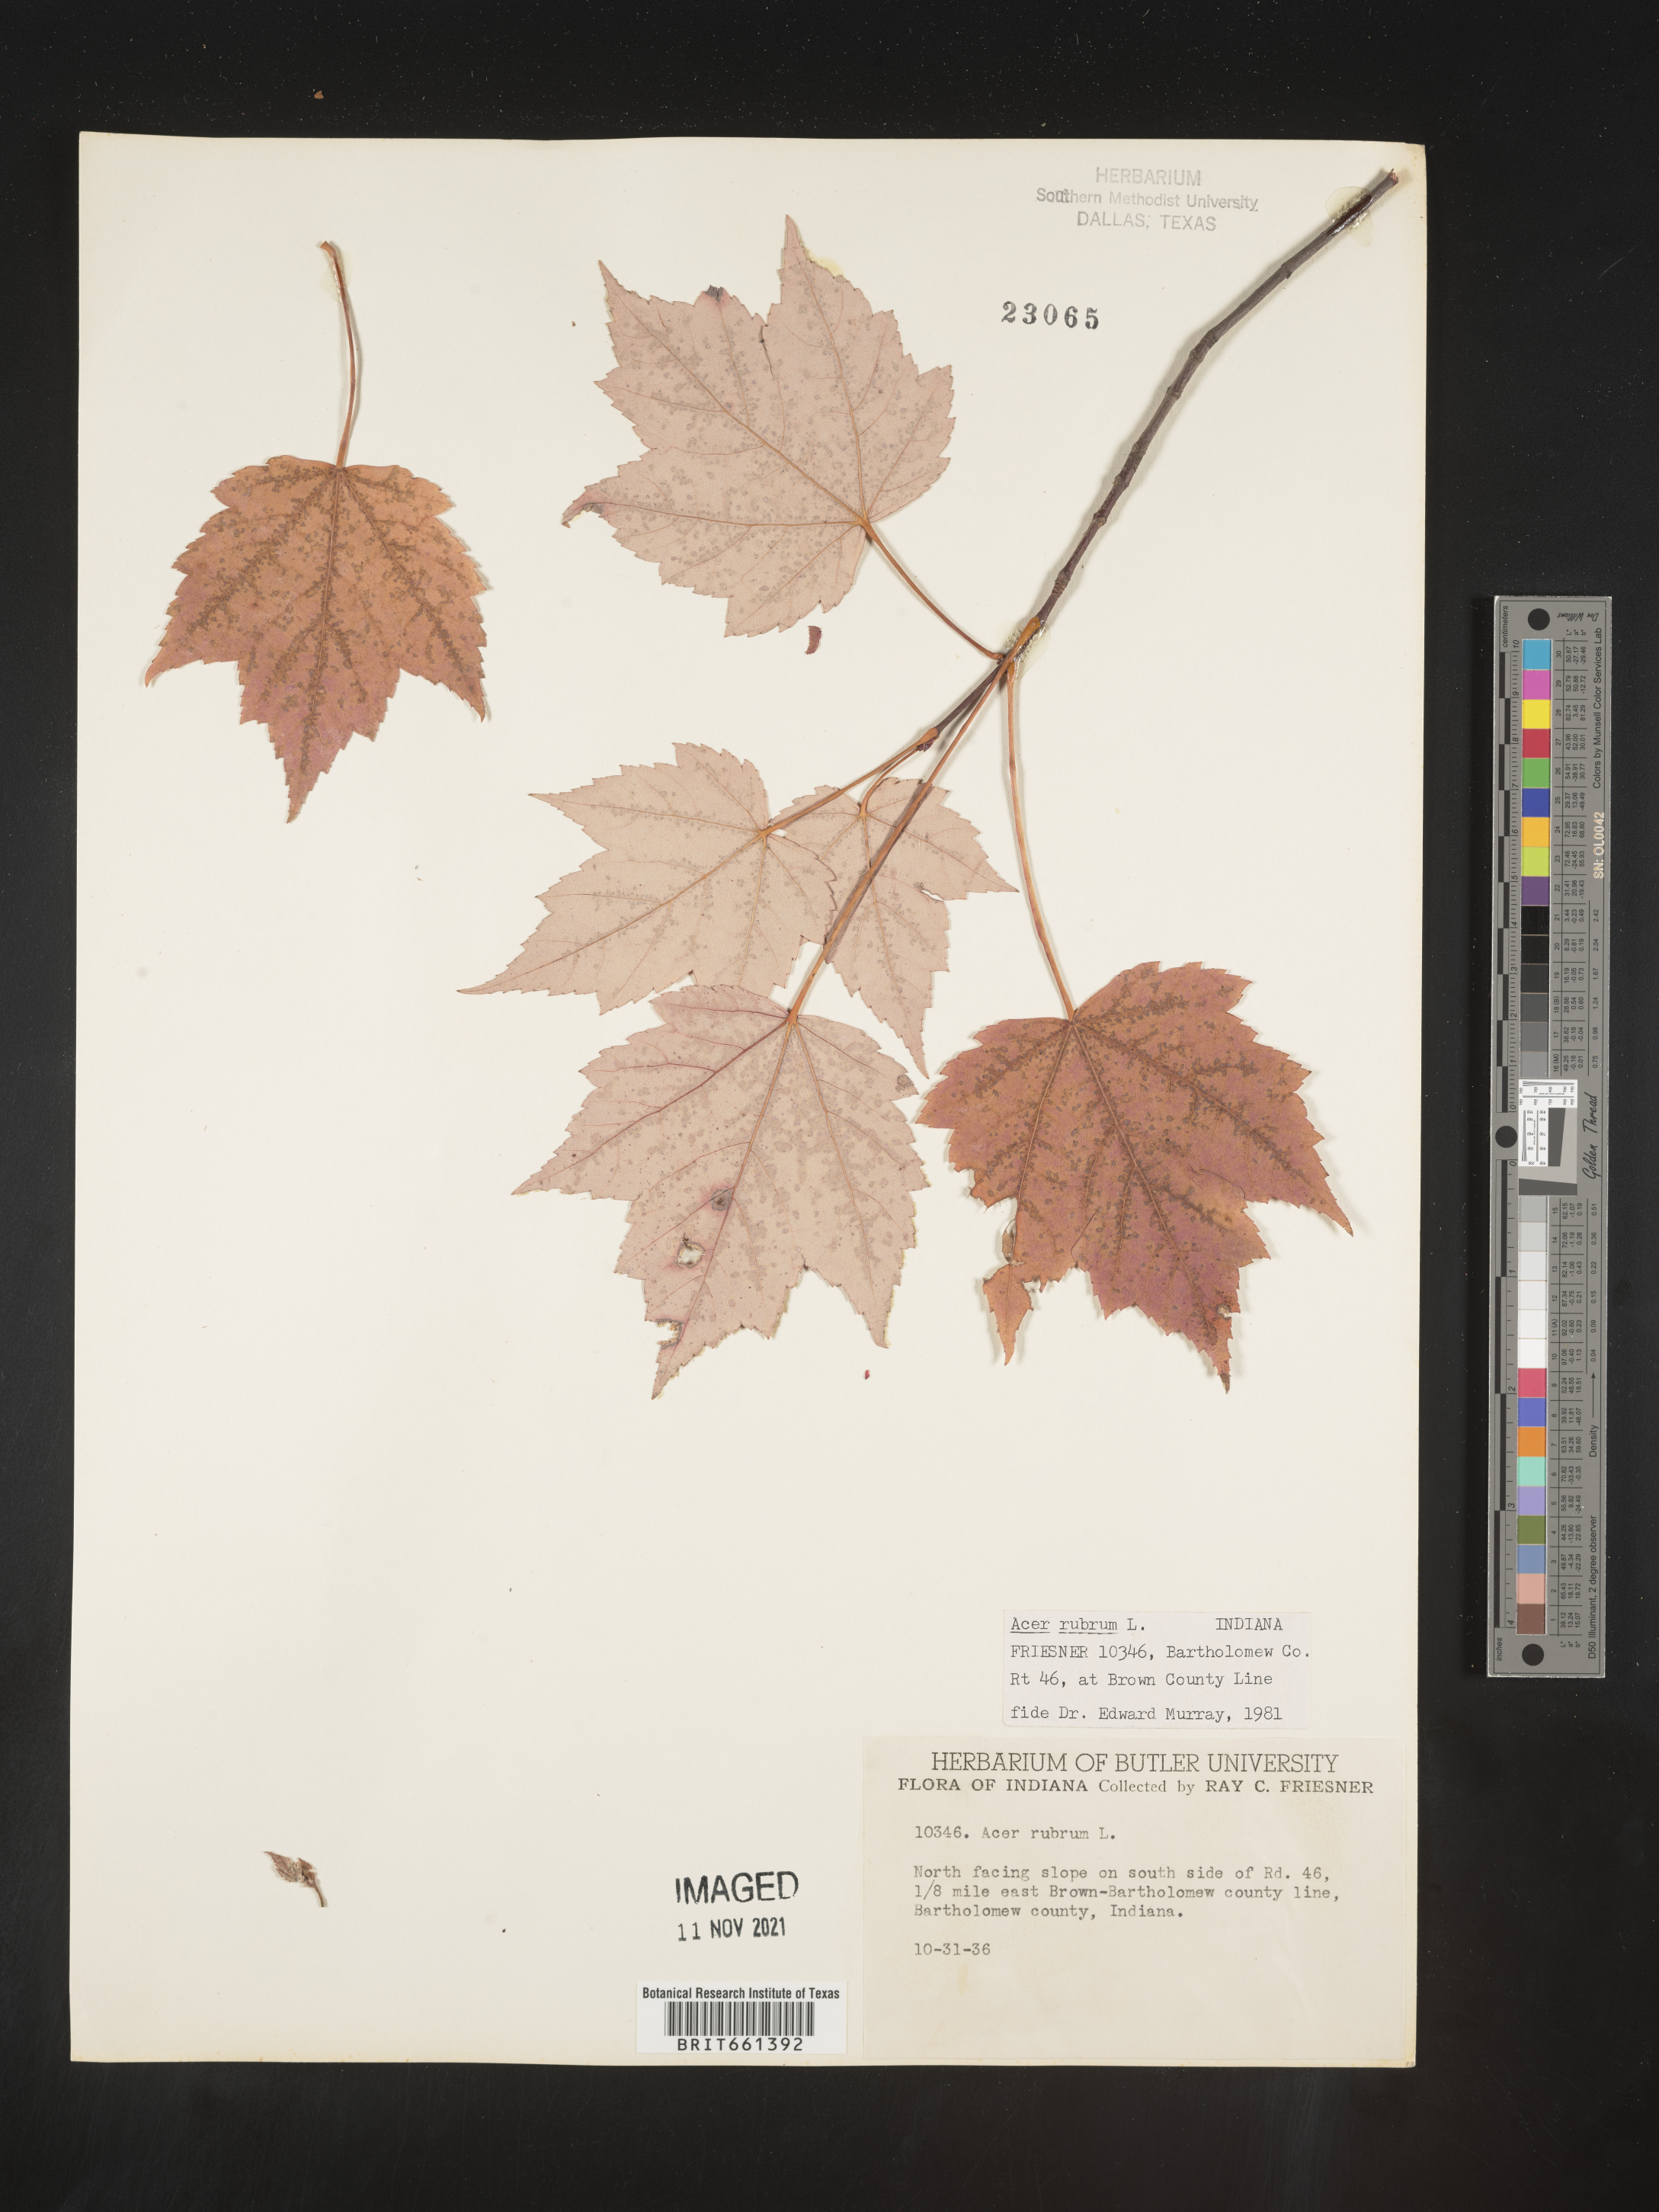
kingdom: Plantae
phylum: Tracheophyta
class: Magnoliopsida
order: Sapindales
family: Sapindaceae
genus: Acer
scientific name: Acer rubrum
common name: Red maple
